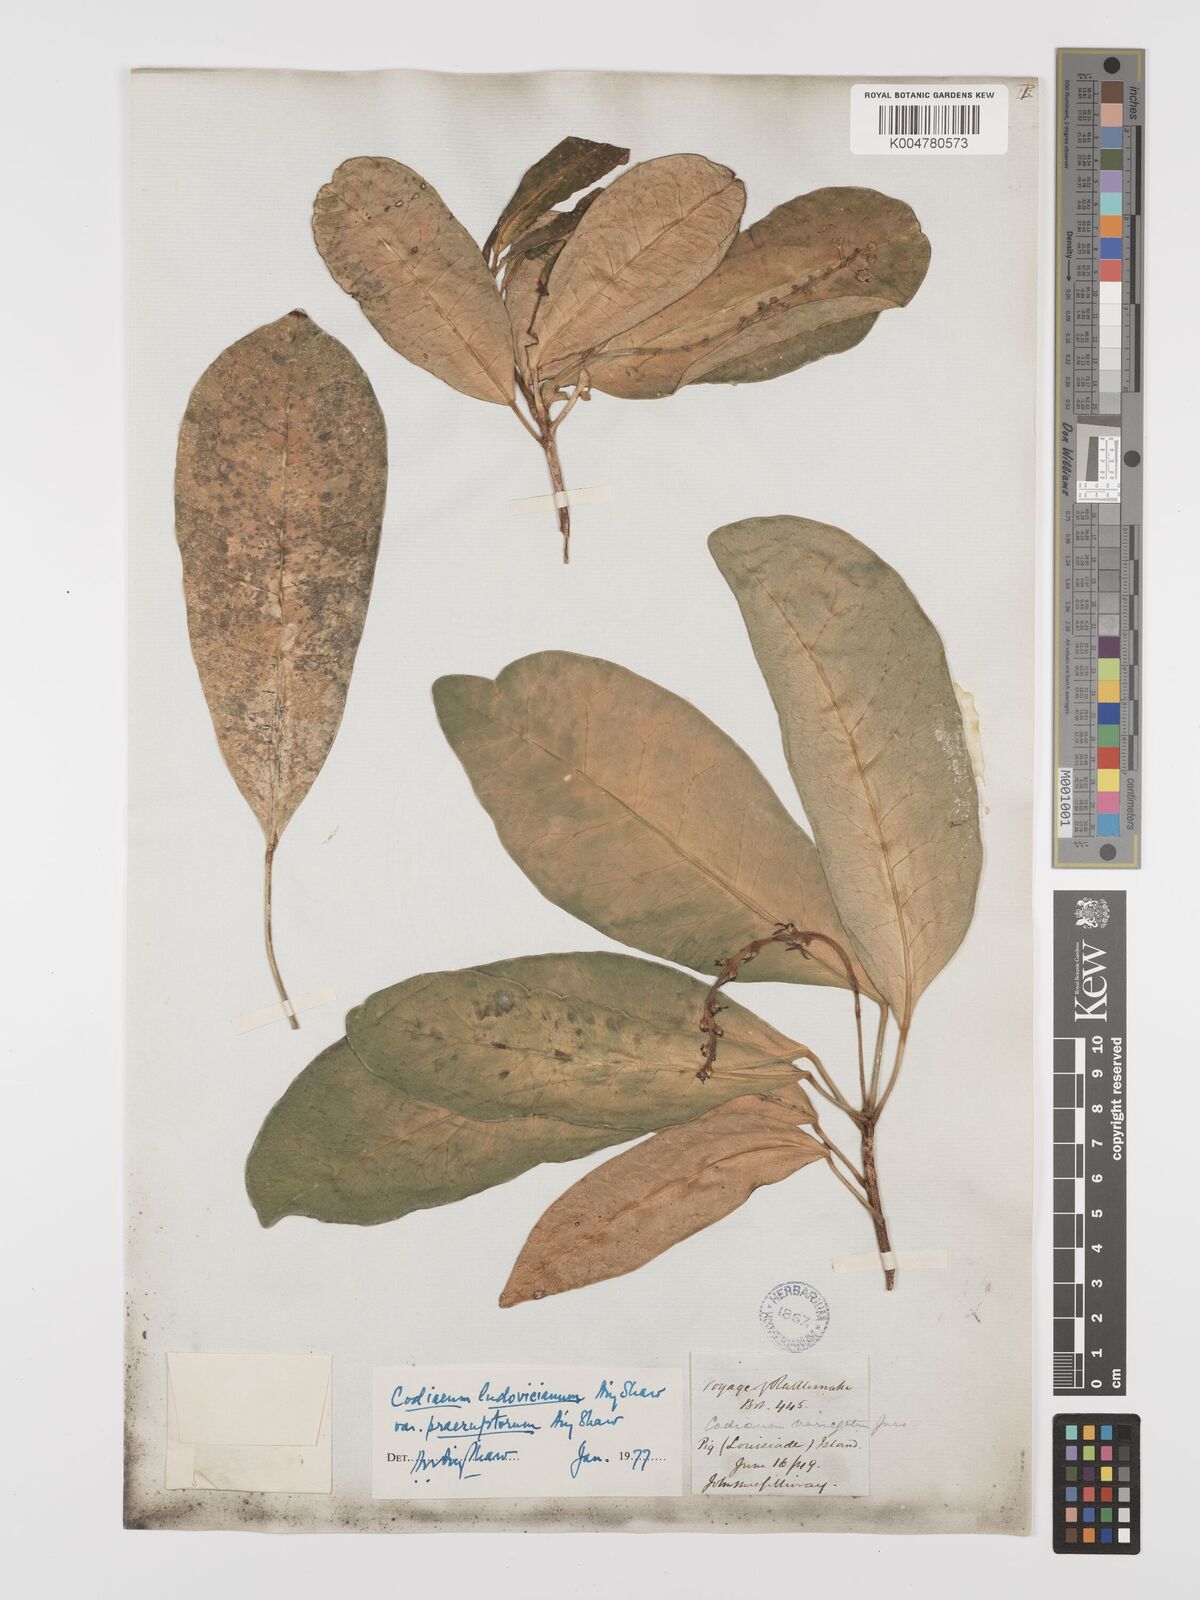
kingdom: Plantae
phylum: Tracheophyta
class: Magnoliopsida
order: Malpighiales
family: Euphorbiaceae
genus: Codiaeum
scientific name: Codiaeum ludovicianum
